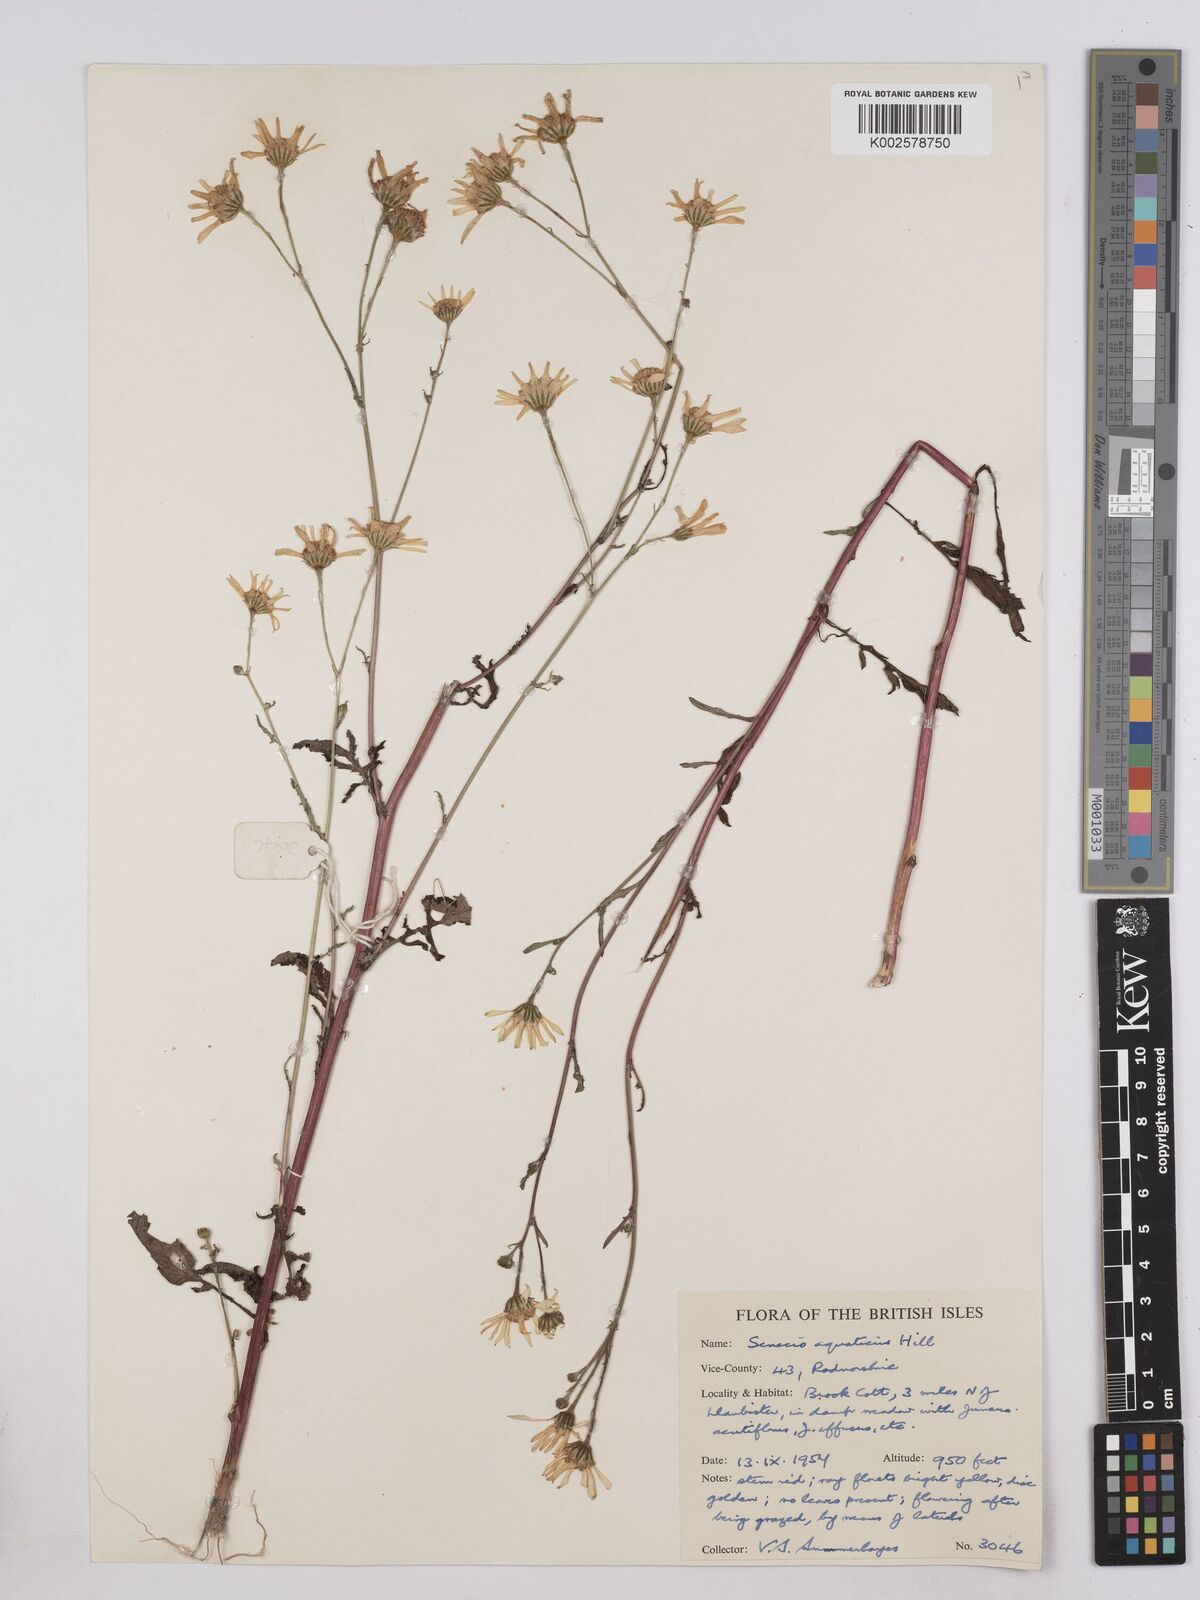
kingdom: Plantae
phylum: Tracheophyta
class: Magnoliopsida
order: Asterales
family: Asteraceae
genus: Jacobaea
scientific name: Jacobaea aquatica
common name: Water ragwort
